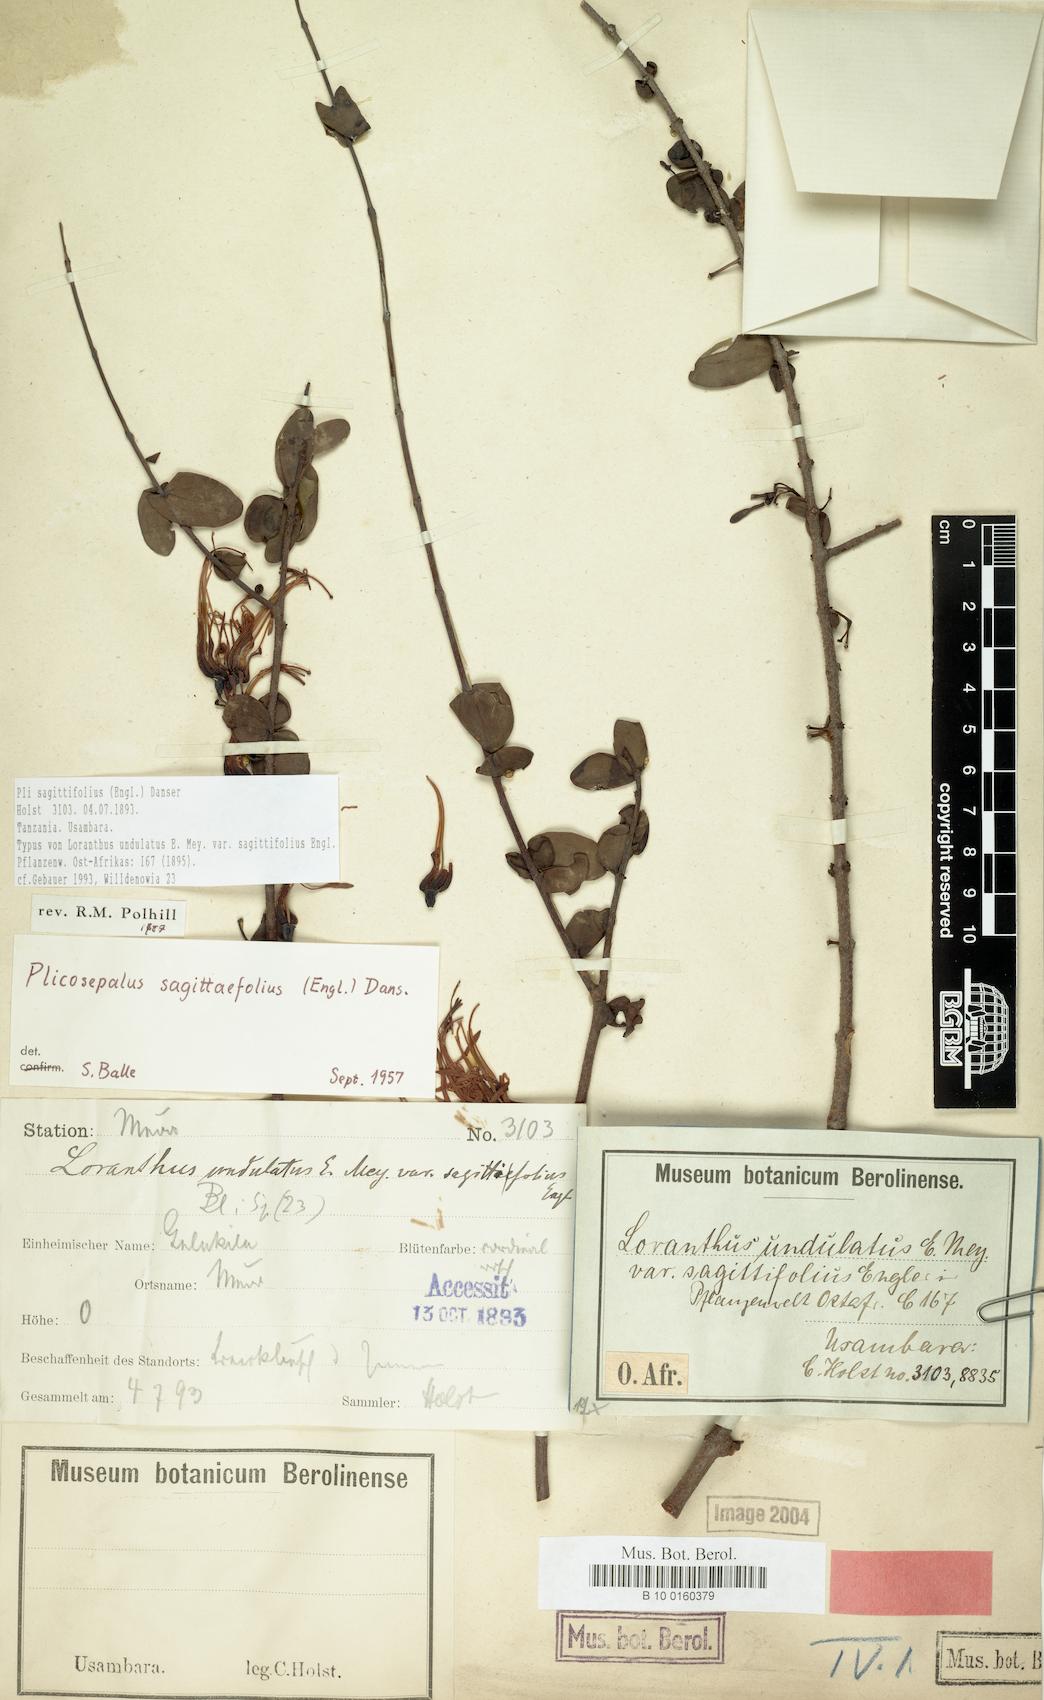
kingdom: Plantae
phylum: Tracheophyta
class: Magnoliopsida
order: Santalales
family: Loranthaceae
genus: Plicosepalus
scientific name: Plicosepalus sagittifolius
